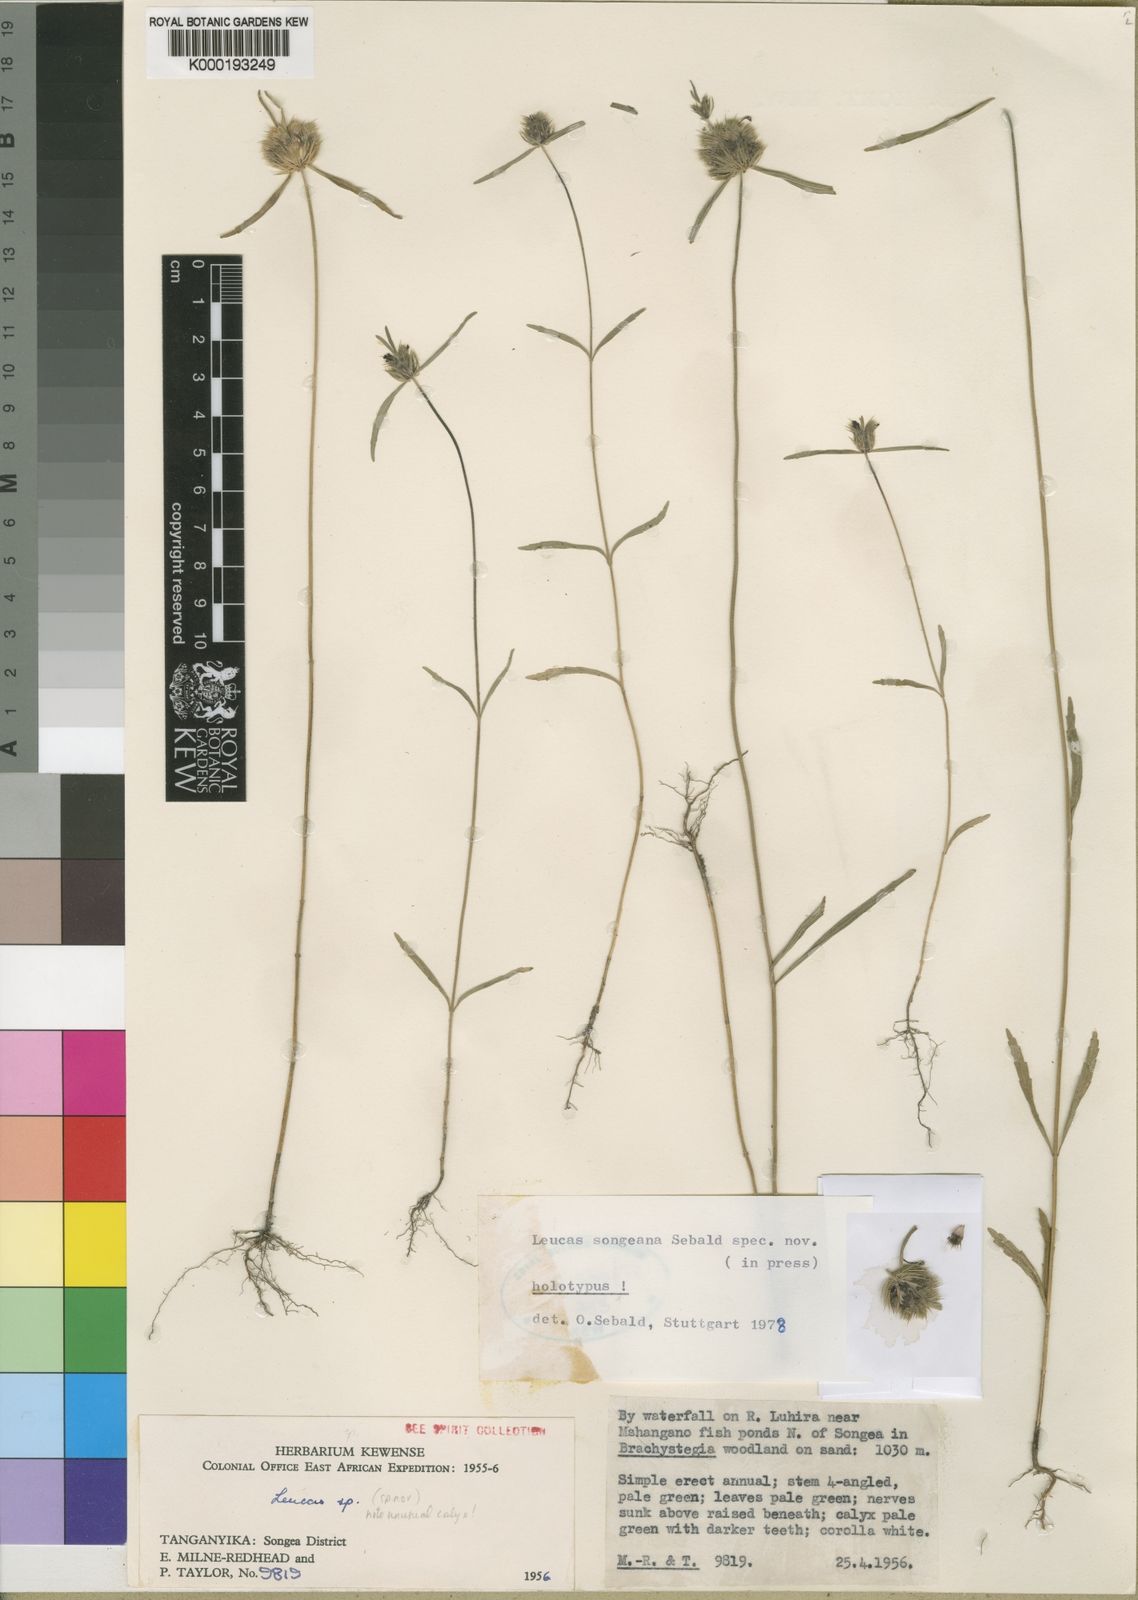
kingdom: Plantae
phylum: Tracheophyta
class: Magnoliopsida
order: Lamiales
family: Lamiaceae
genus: Leucas
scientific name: Leucas songeana
